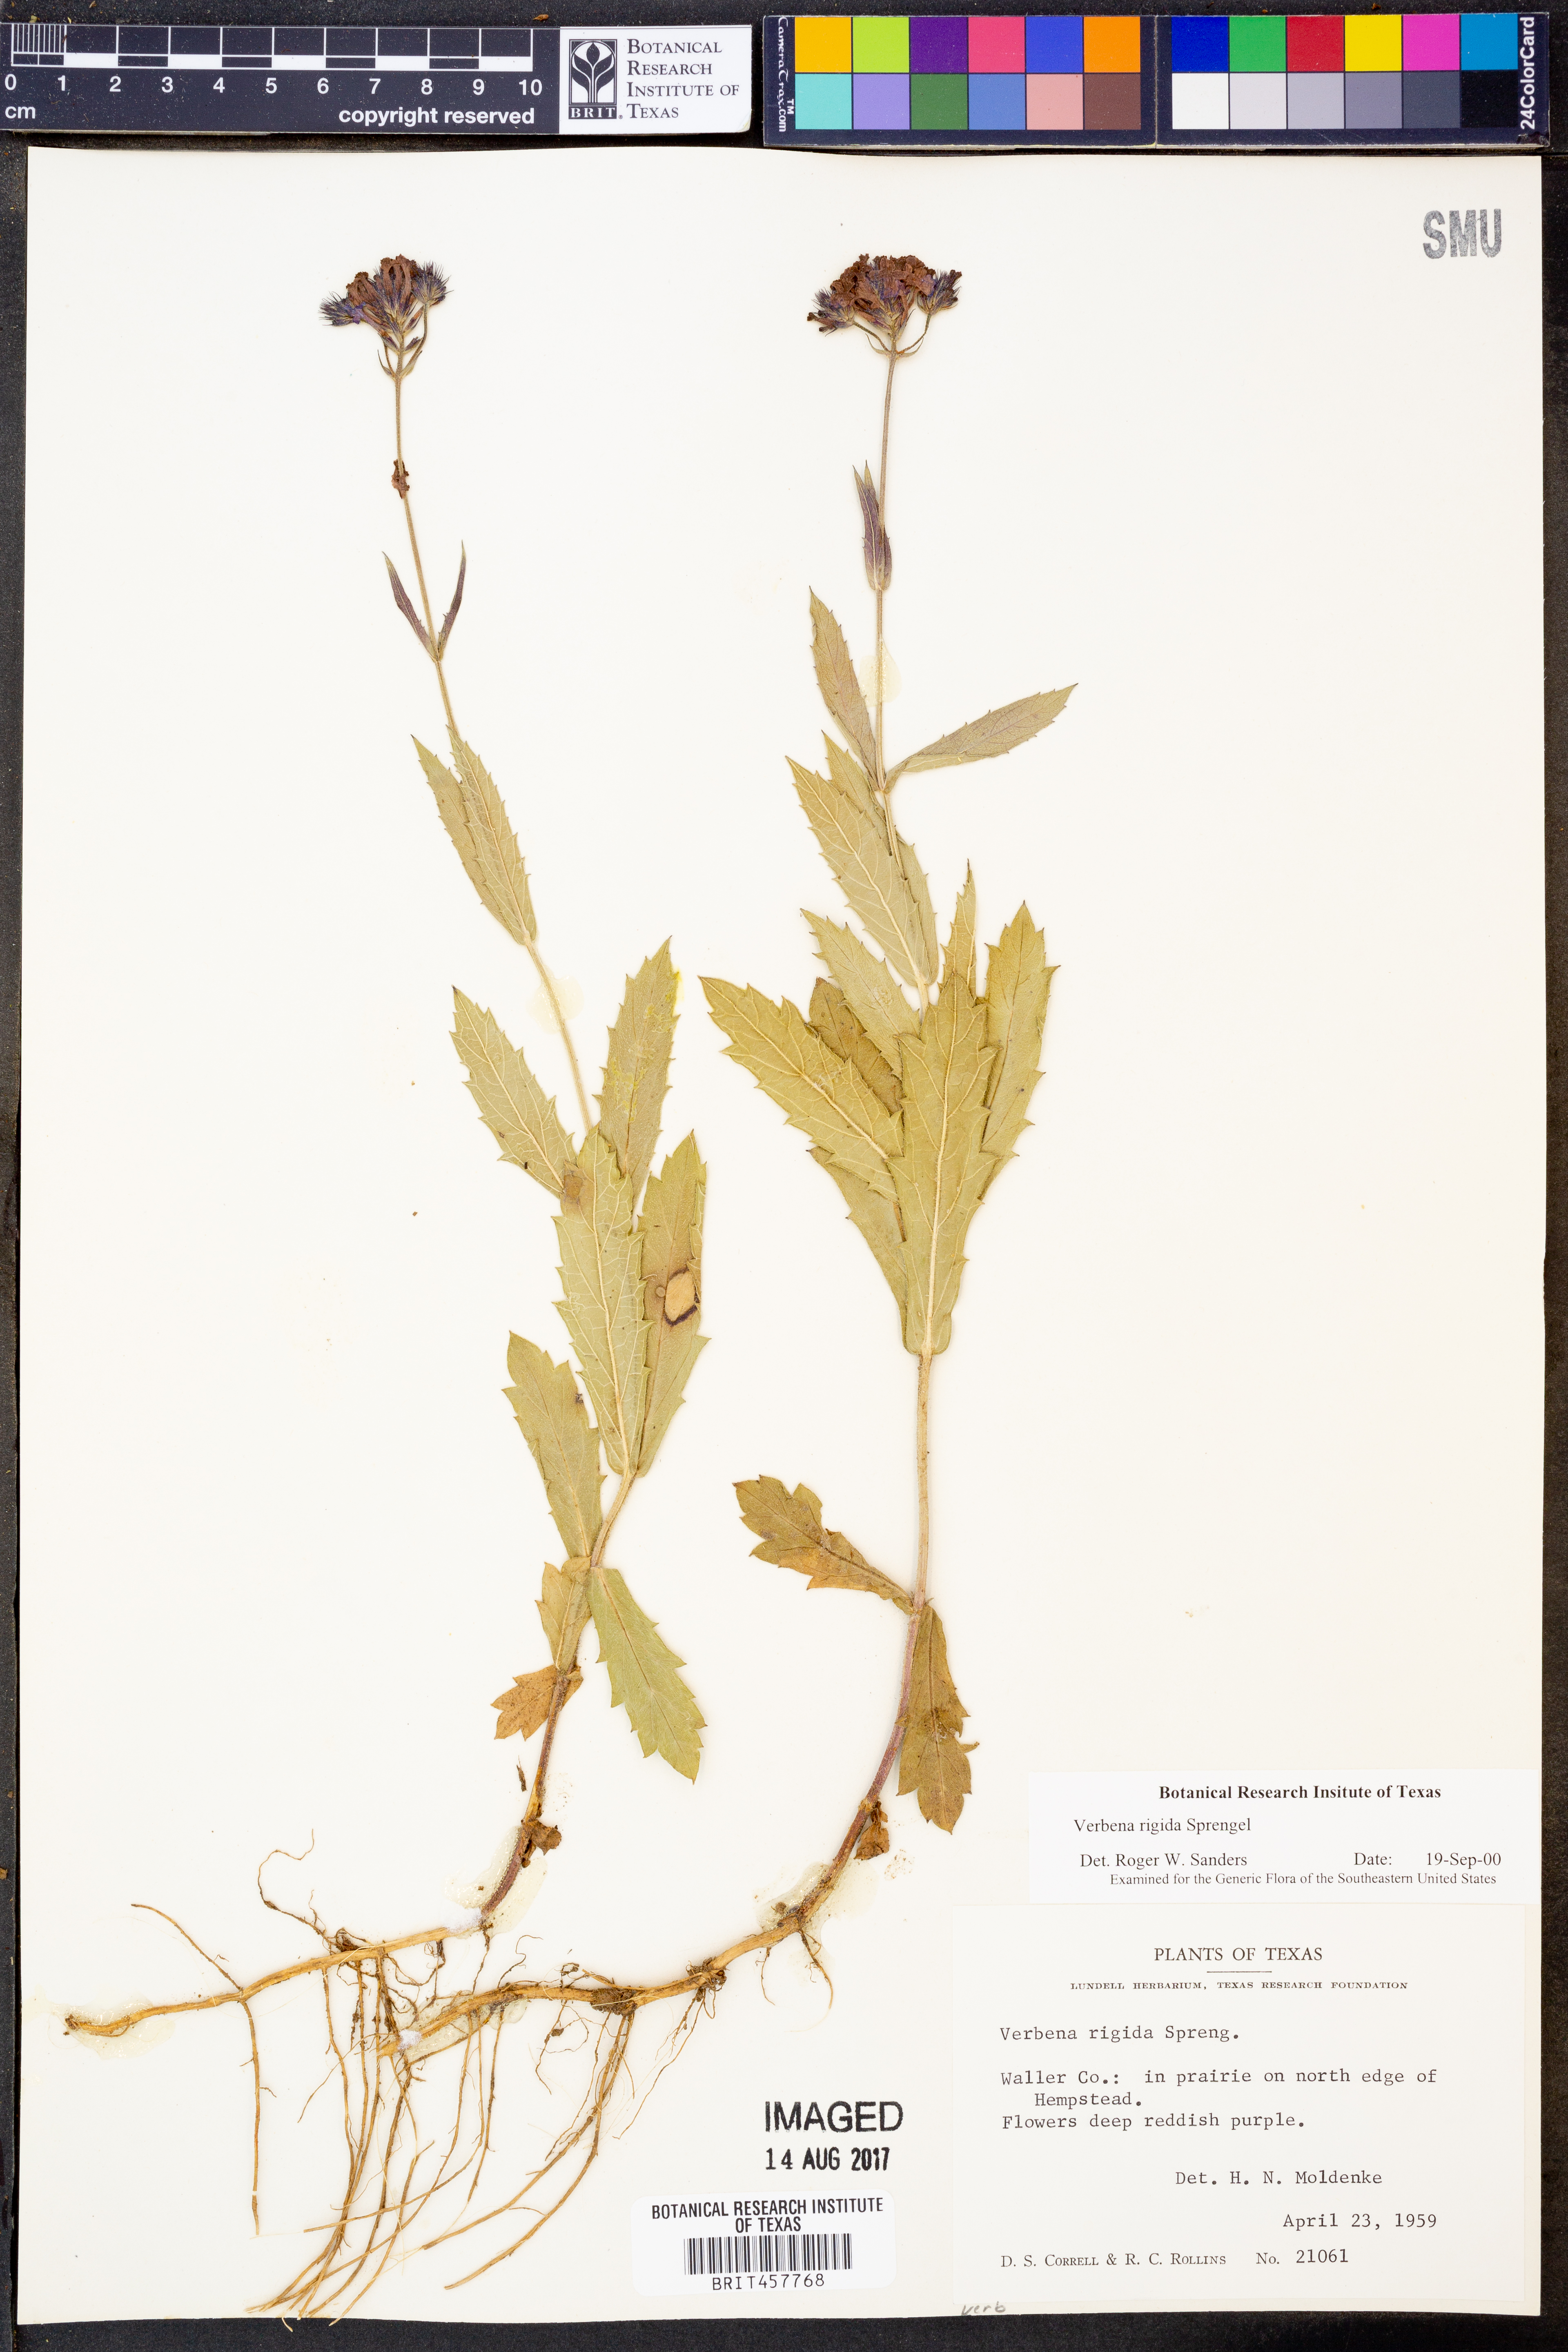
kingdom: Plantae
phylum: Tracheophyta
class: Magnoliopsida
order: Lamiales
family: Verbenaceae
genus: Verbena
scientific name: Verbena rigida
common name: Slender vervain
